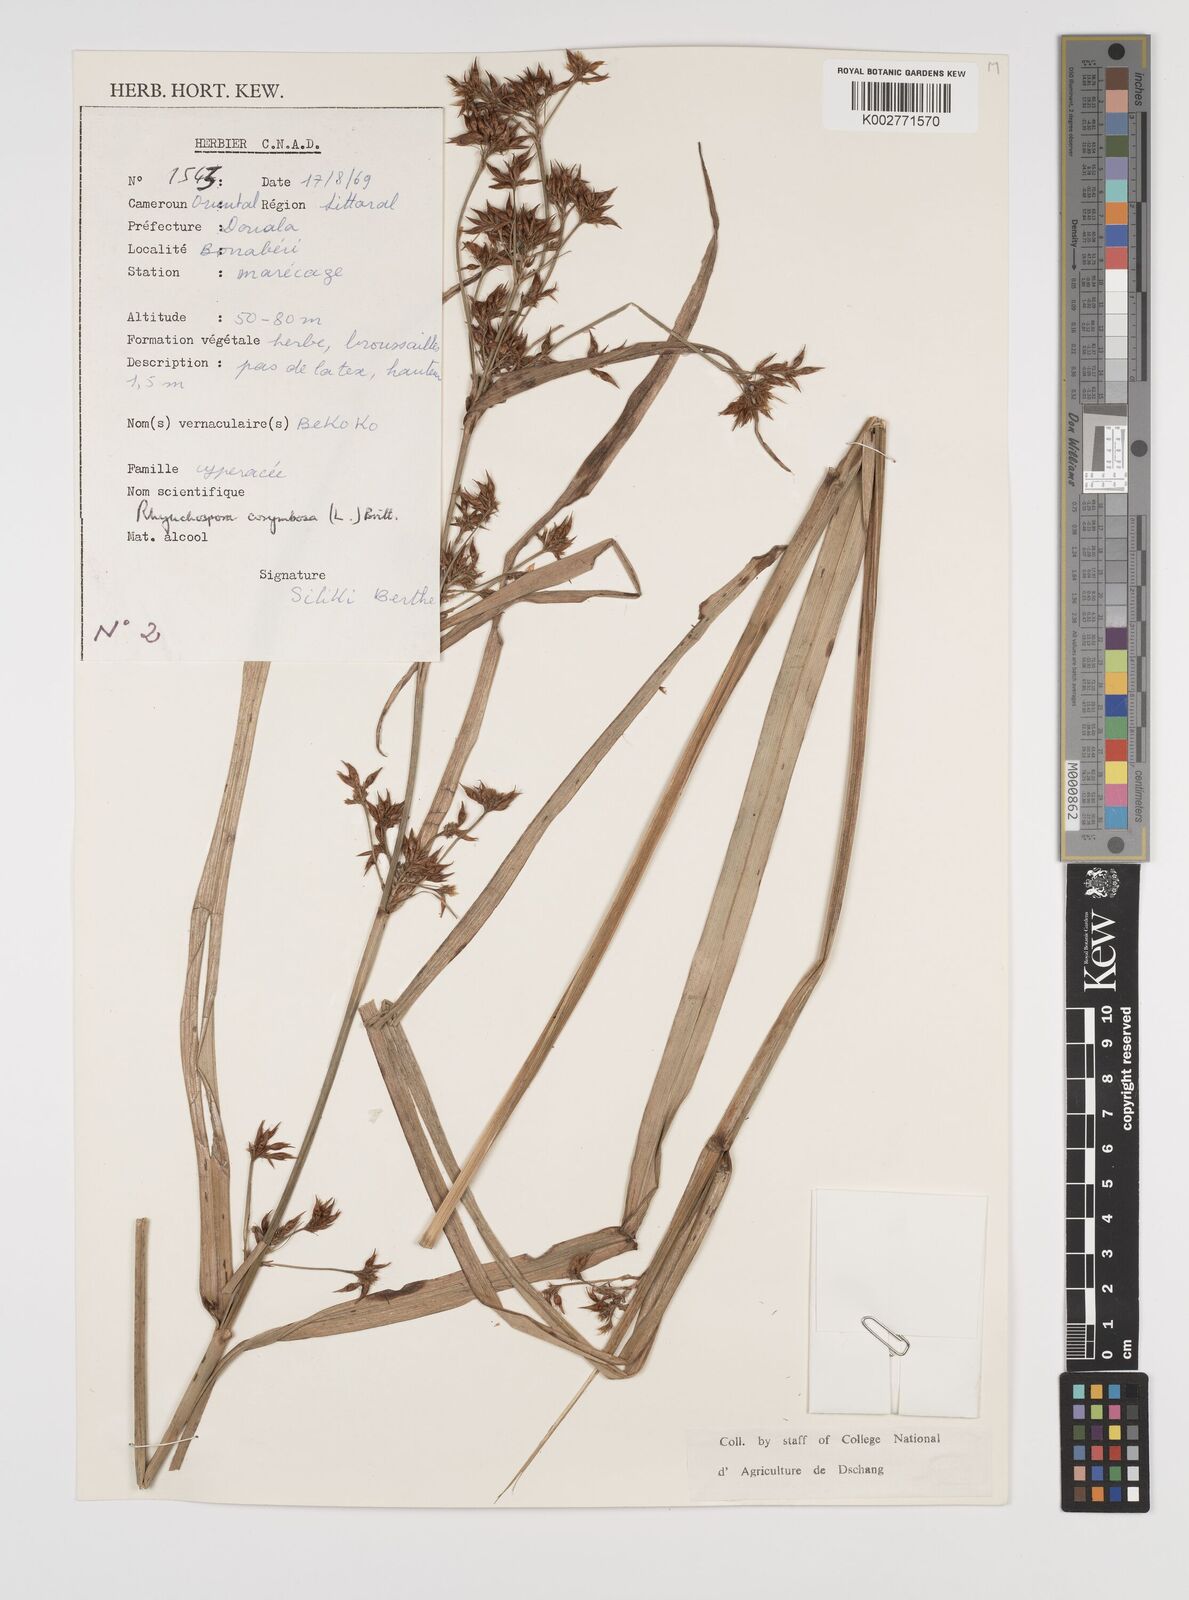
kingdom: Plantae
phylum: Tracheophyta
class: Liliopsida
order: Poales
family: Cyperaceae
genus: Rhynchospora
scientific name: Rhynchospora corymbosa
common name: Golden beak sedge
